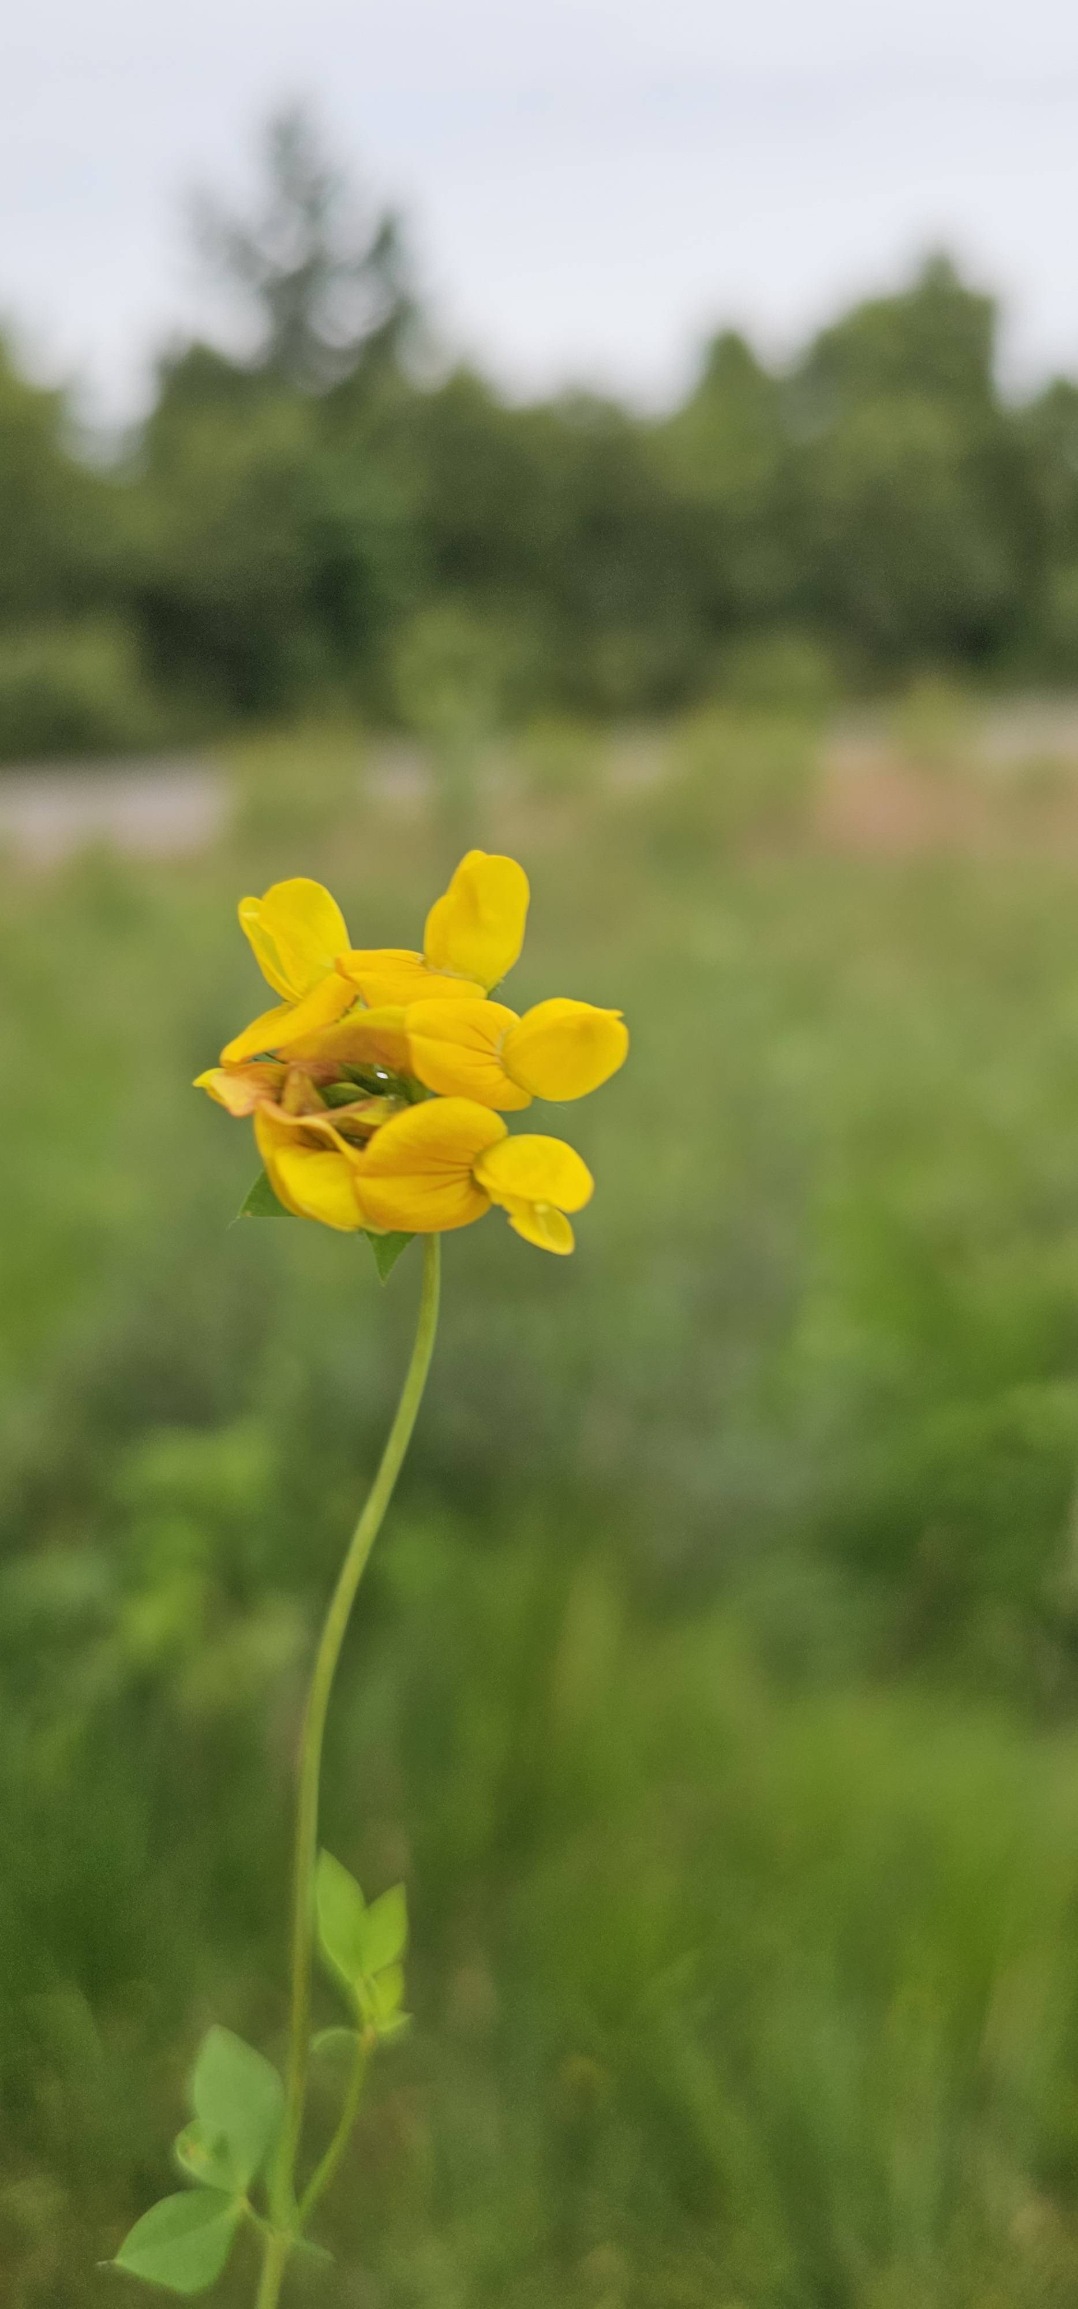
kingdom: Plantae
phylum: Tracheophyta
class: Magnoliopsida
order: Fabales
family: Fabaceae
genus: Lotus
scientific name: Lotus corniculatus
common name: Almindelig kællingetand
